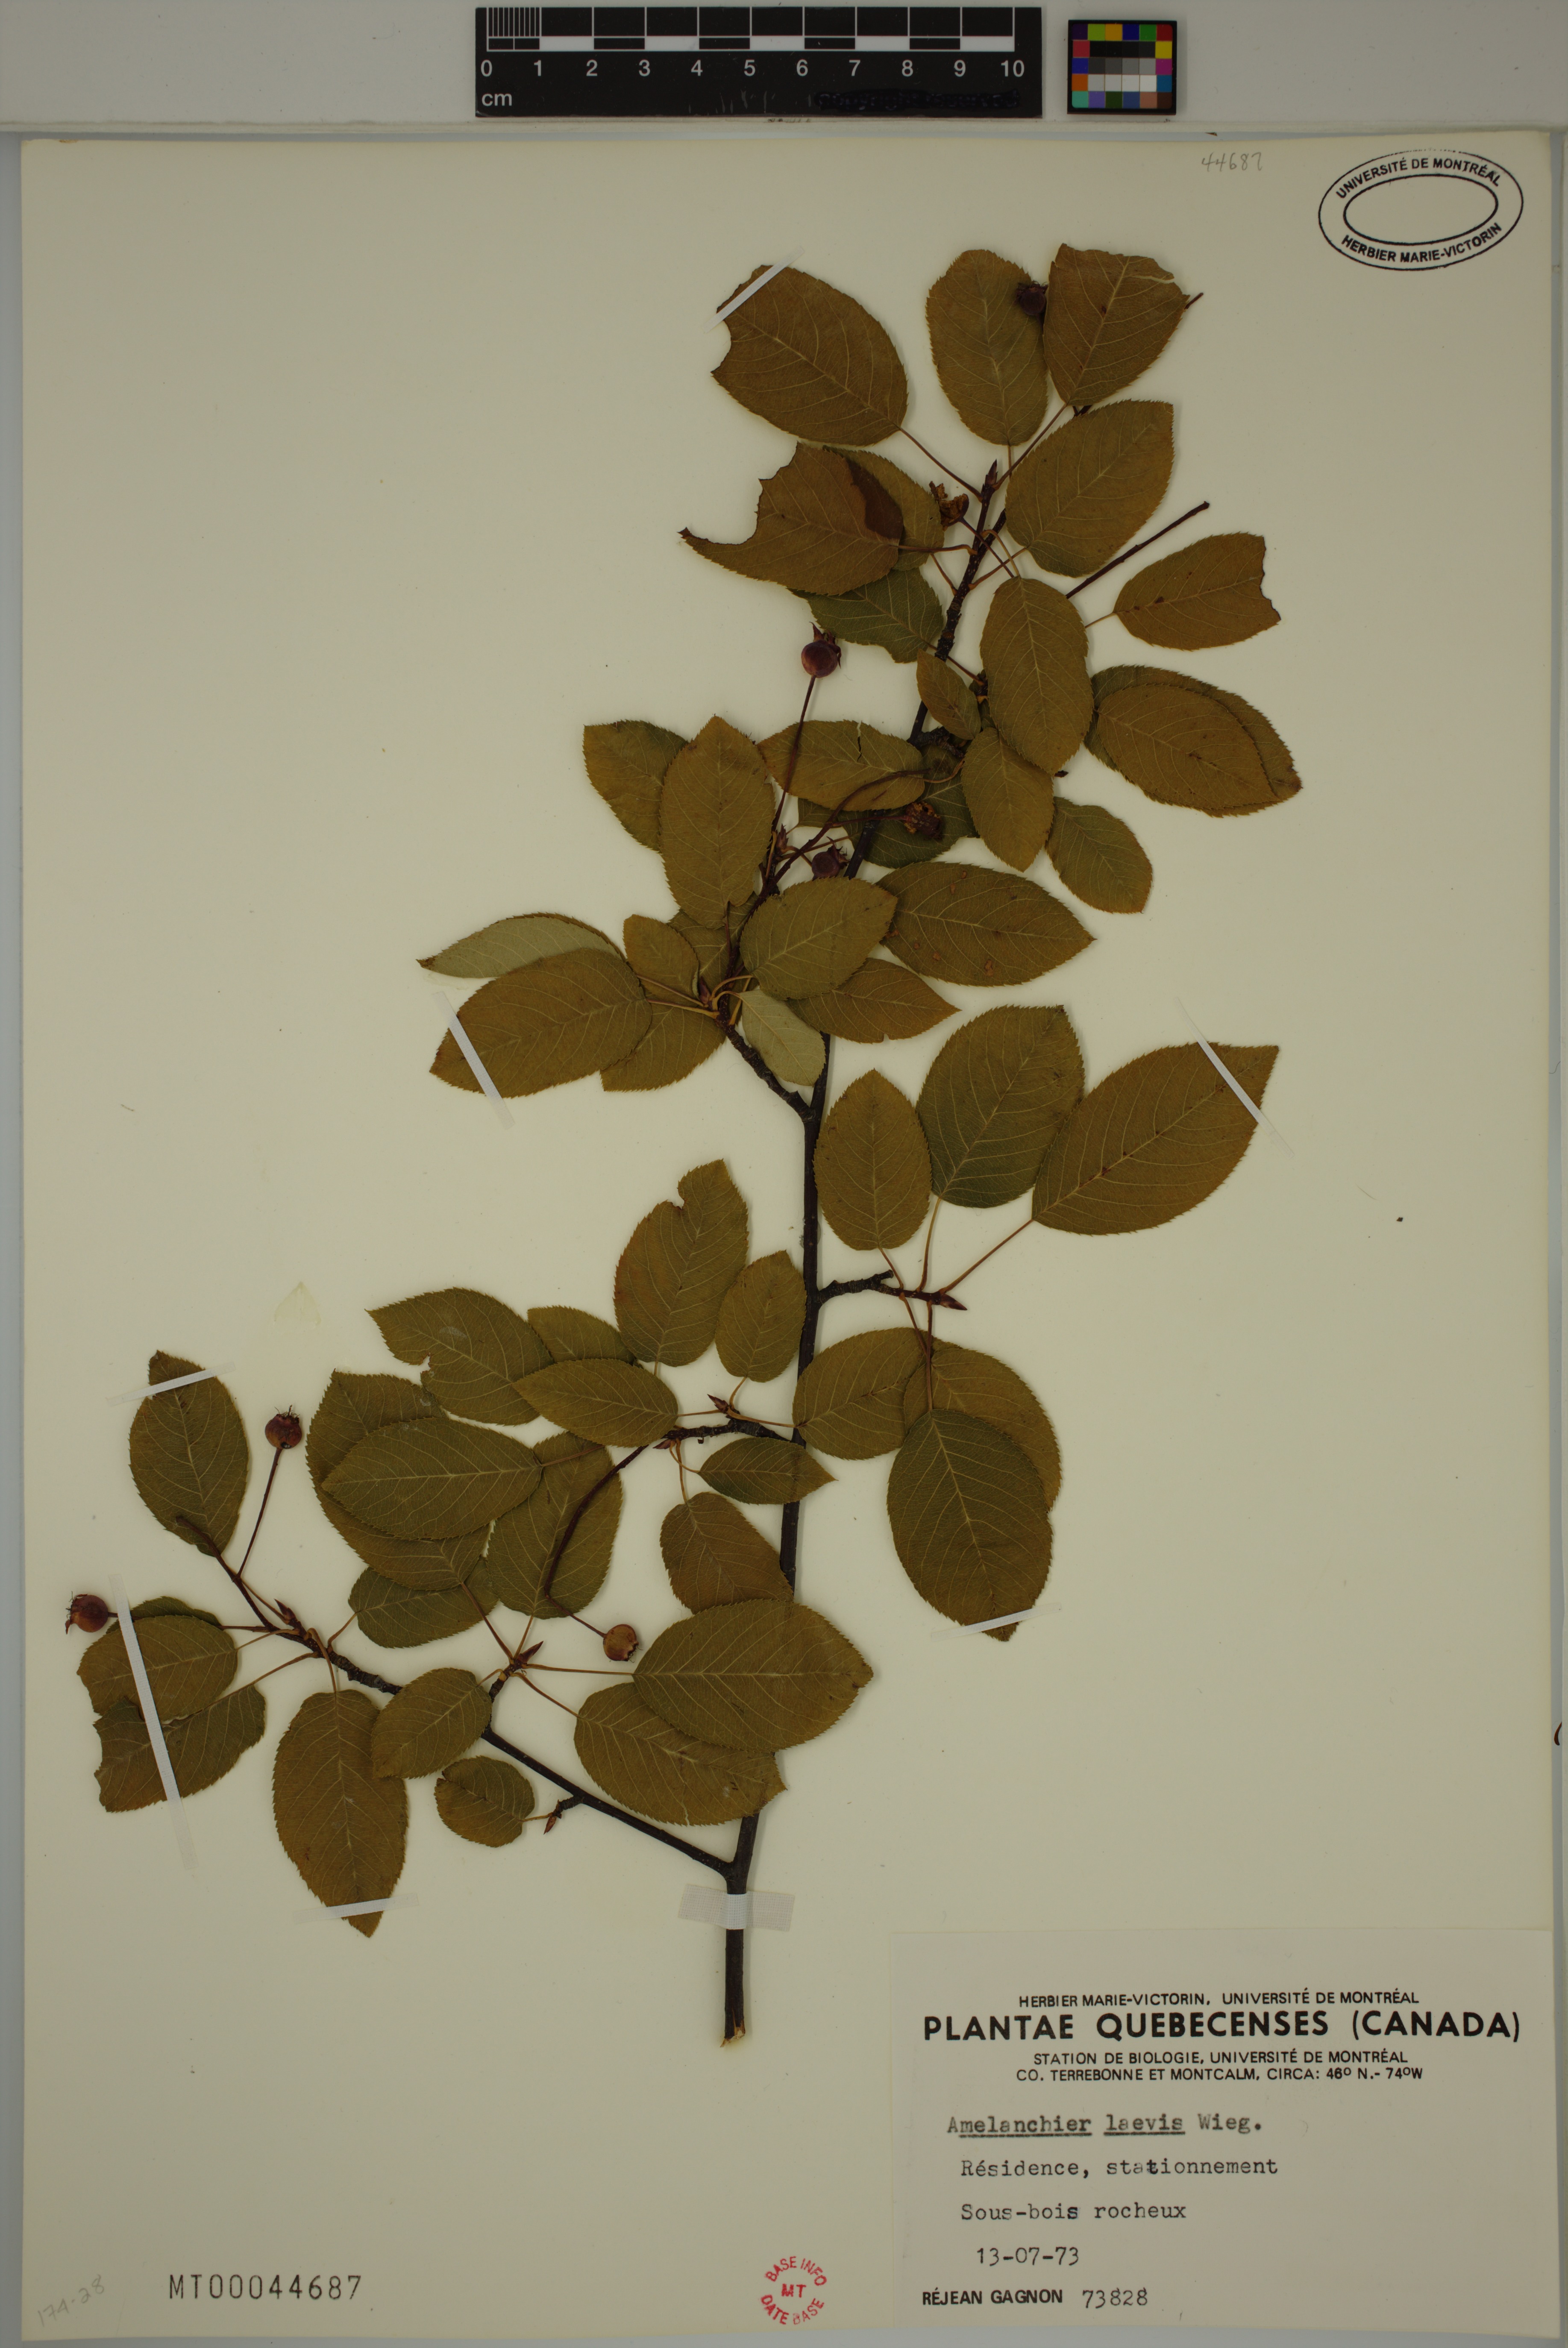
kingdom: Plantae
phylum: Tracheophyta
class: Magnoliopsida
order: Rosales
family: Rosaceae
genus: Amelanchier
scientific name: Amelanchier laevis
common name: Allegheny serviceberry
